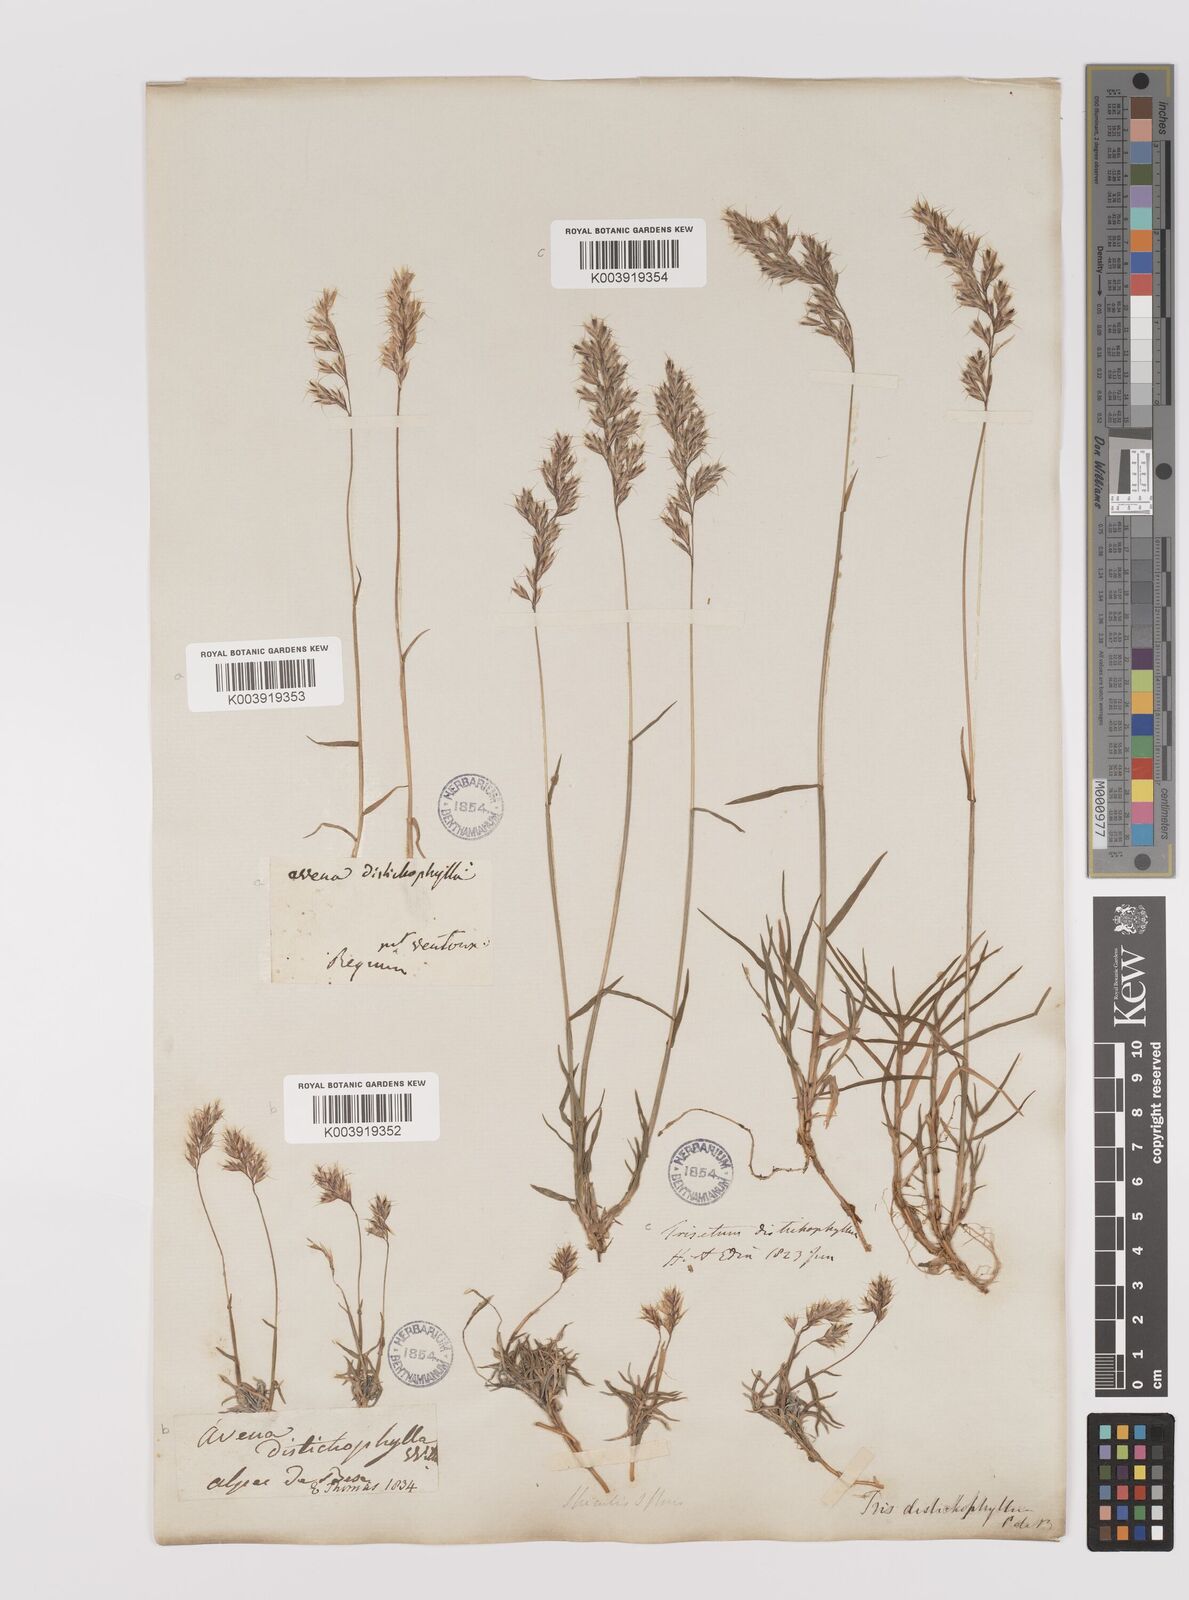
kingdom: Plantae
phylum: Tracheophyta
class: Liliopsida
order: Poales
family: Poaceae
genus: Acrospelion
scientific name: Acrospelion distichophyllum
